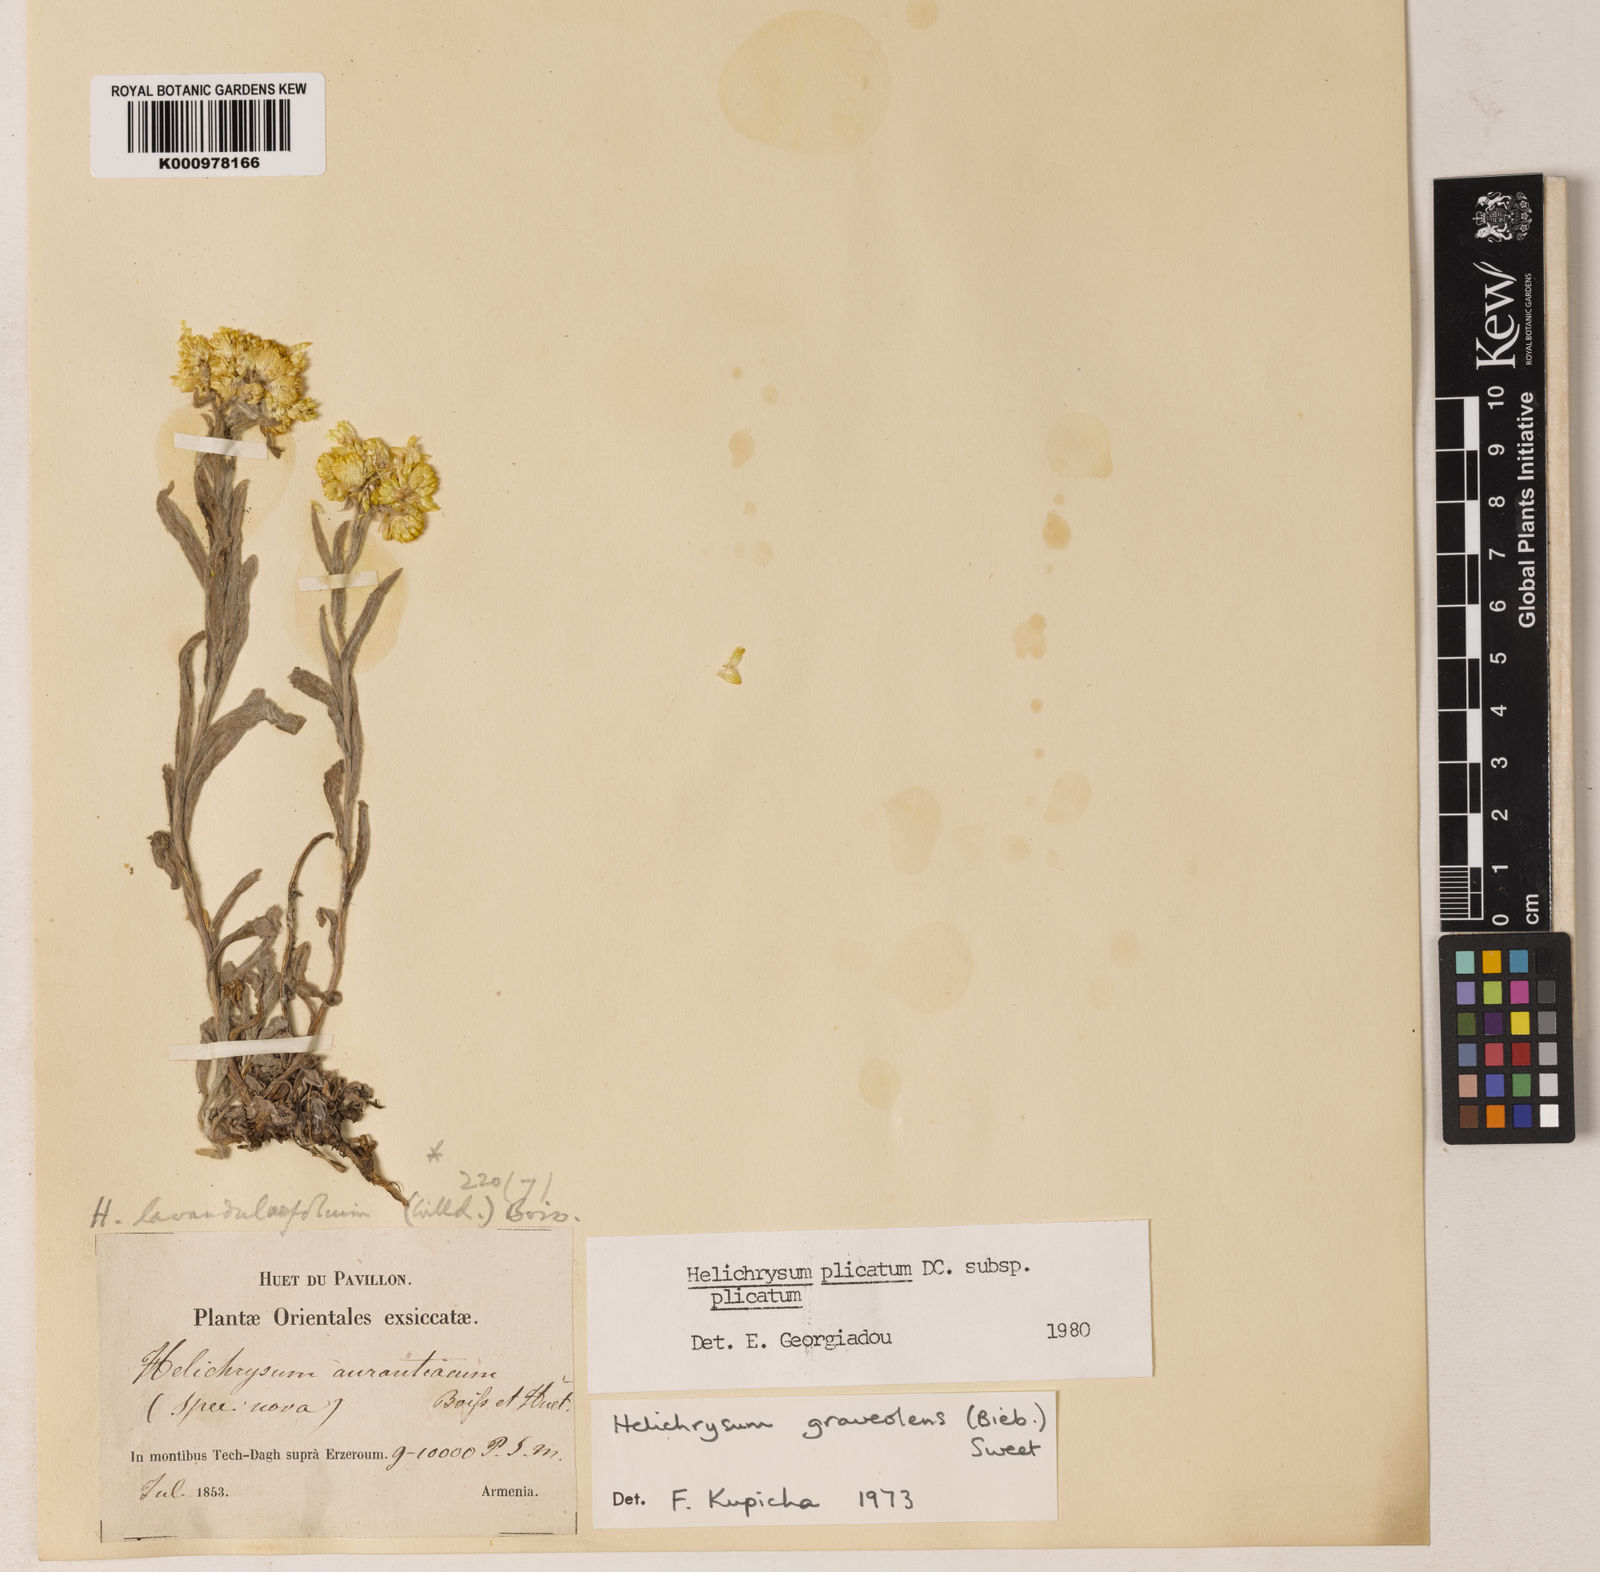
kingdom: Plantae
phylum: Tracheophyta
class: Magnoliopsida
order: Asterales
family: Asteraceae
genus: Helichrysum
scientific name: Helichrysum graveolens
